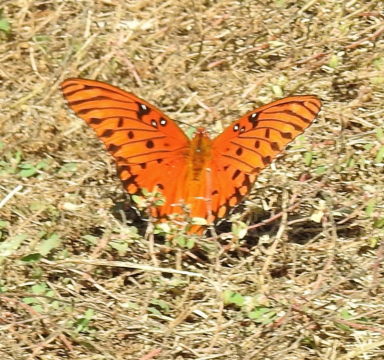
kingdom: Animalia
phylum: Arthropoda
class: Insecta
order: Lepidoptera
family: Nymphalidae
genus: Dione
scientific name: Dione vanillae
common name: Gulf Fritillary
